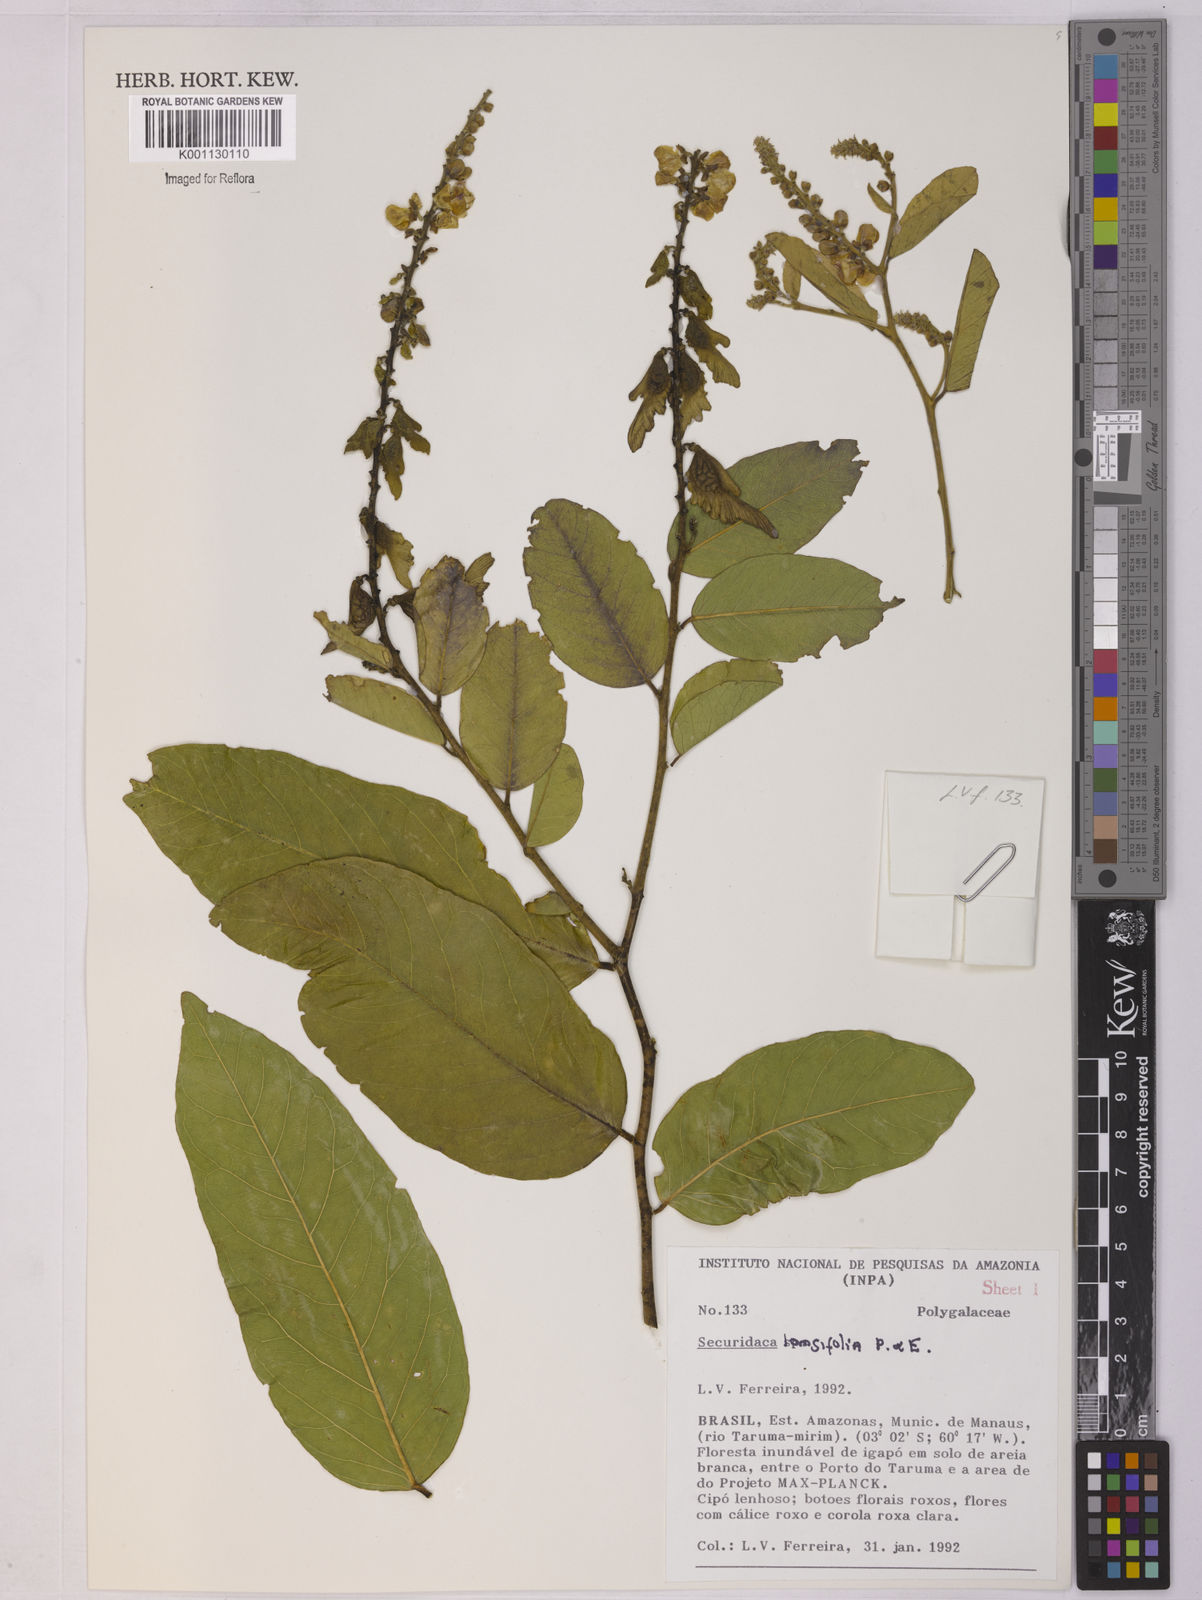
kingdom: Plantae
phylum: Tracheophyta
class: Magnoliopsida
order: Fabales
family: Polygalaceae
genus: Securidaca
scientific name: Securidaca longifolia
